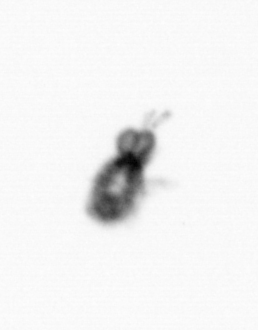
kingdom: Animalia
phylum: Arthropoda
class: Copepoda
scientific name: Copepoda
